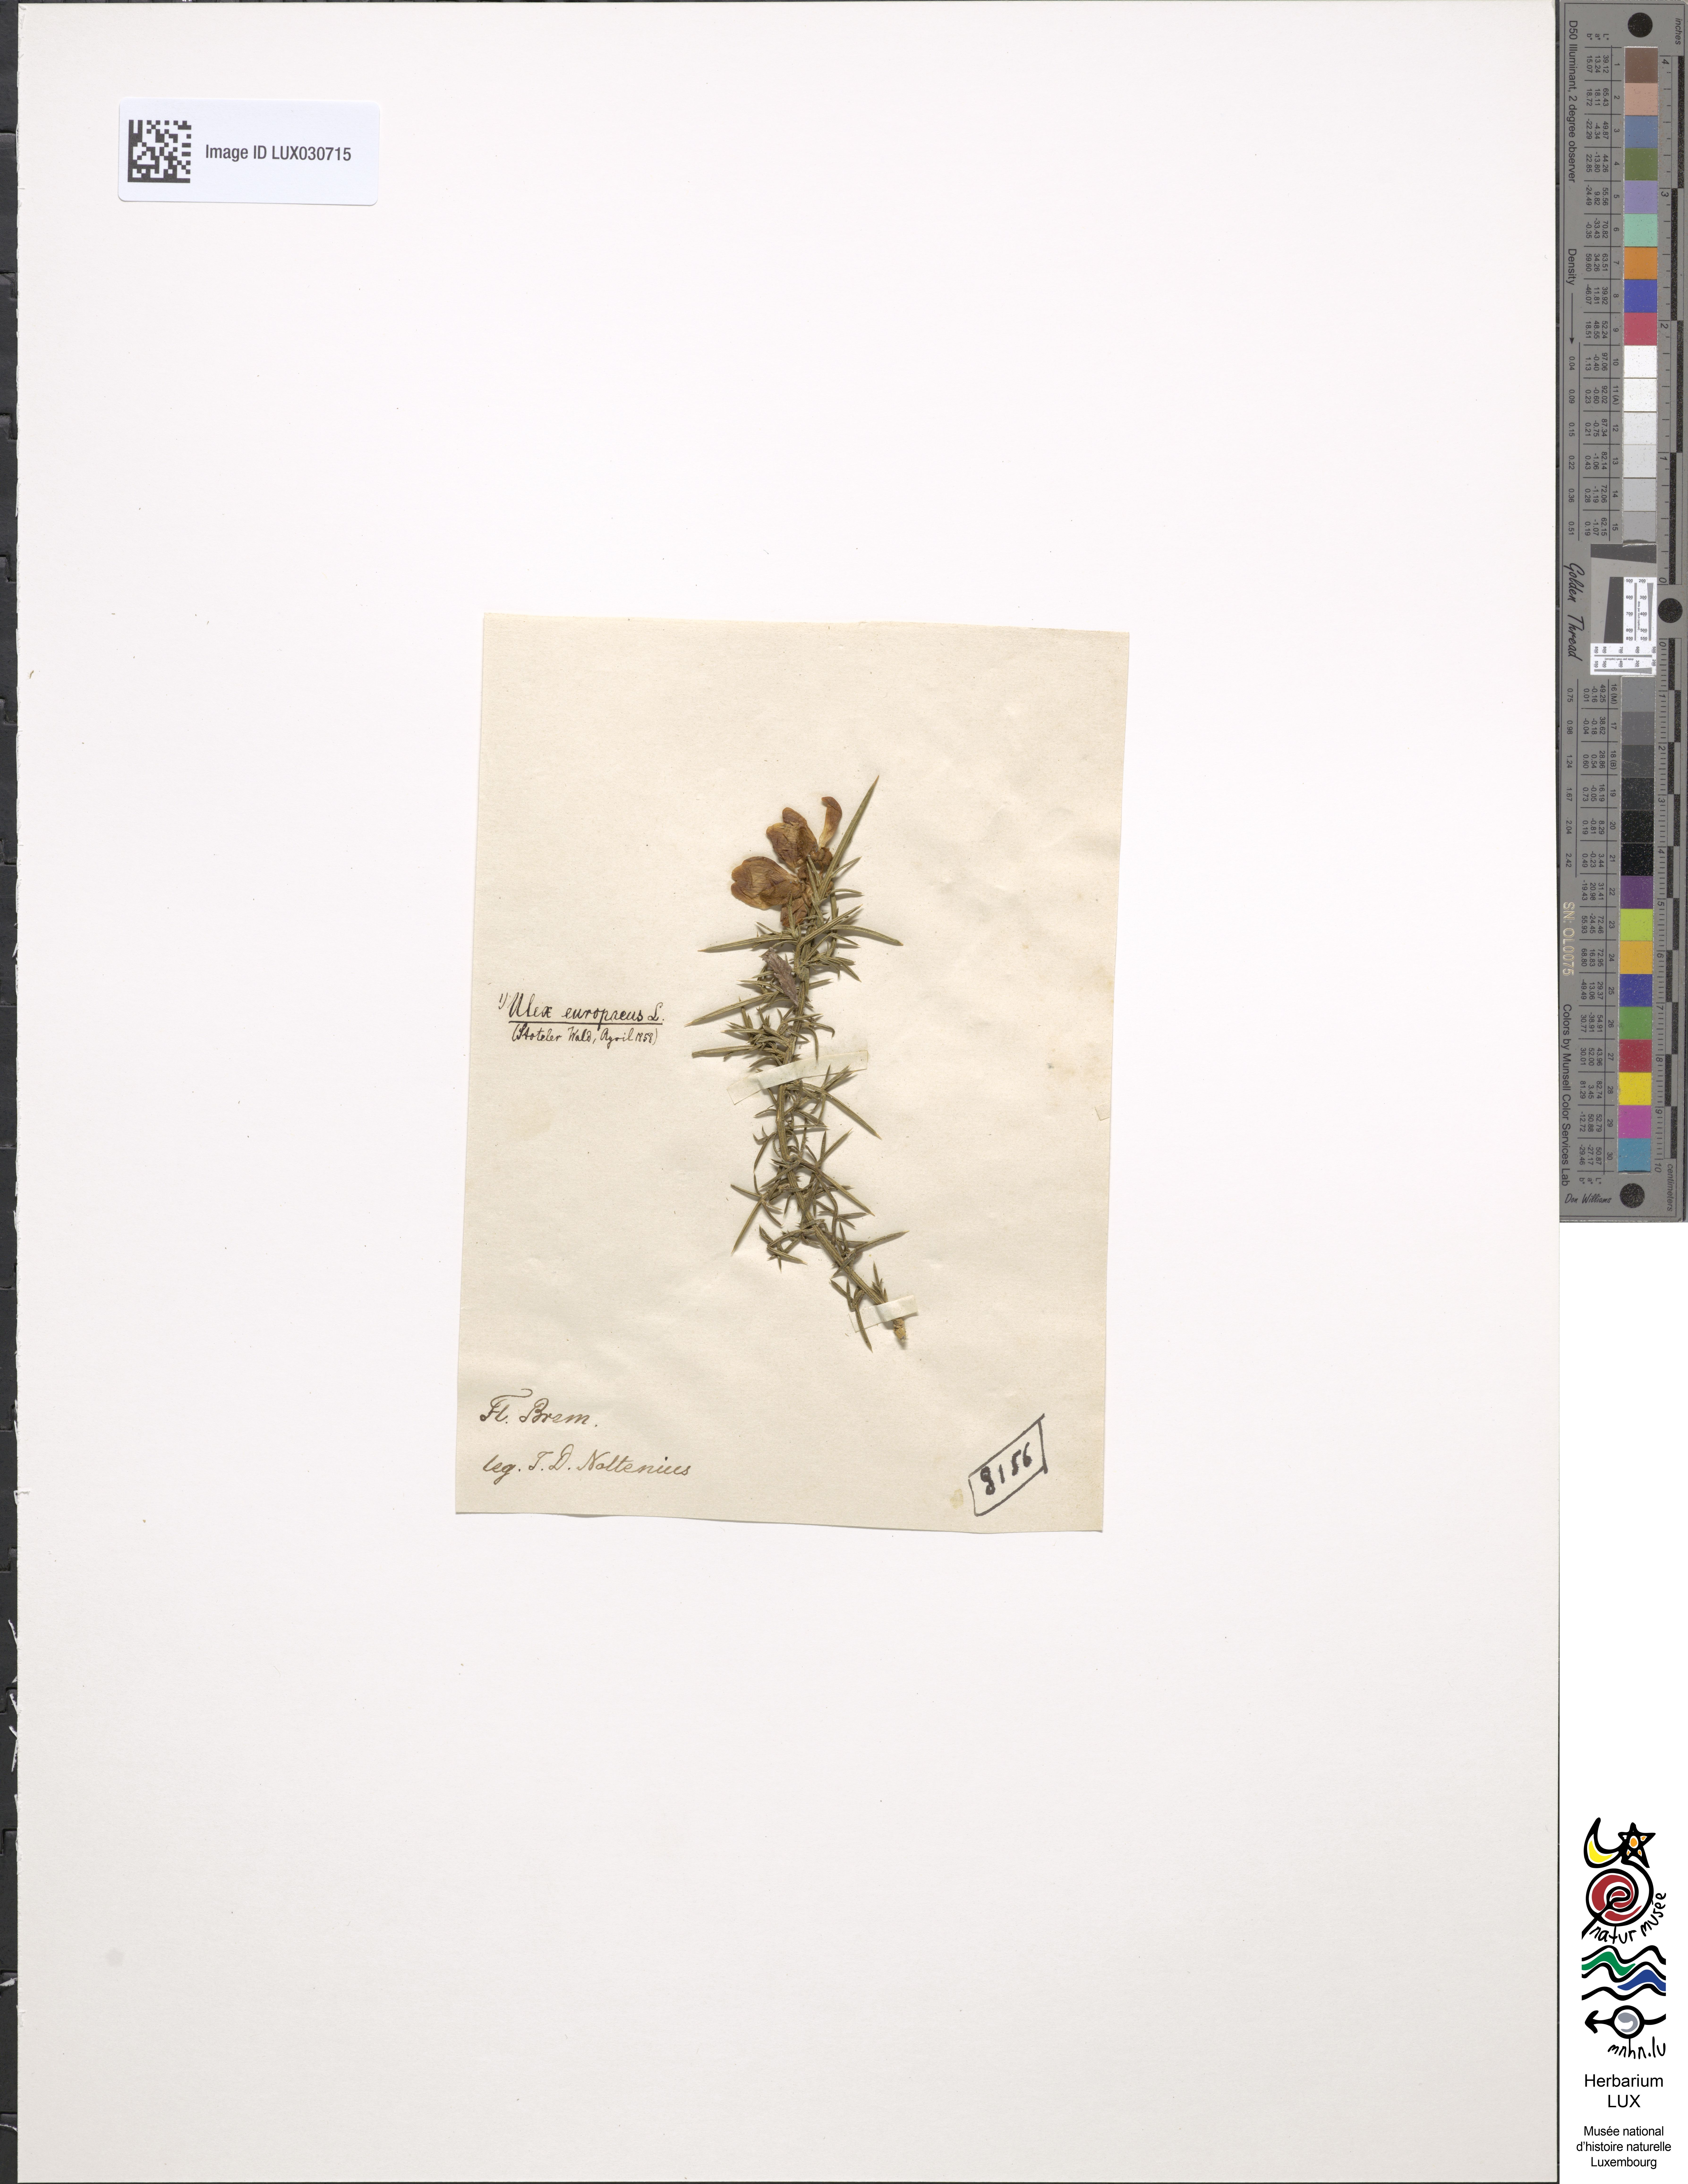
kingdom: Plantae
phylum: Tracheophyta
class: Magnoliopsida
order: Fabales
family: Fabaceae
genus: Ulex
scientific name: Ulex europaeus
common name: Common gorse
